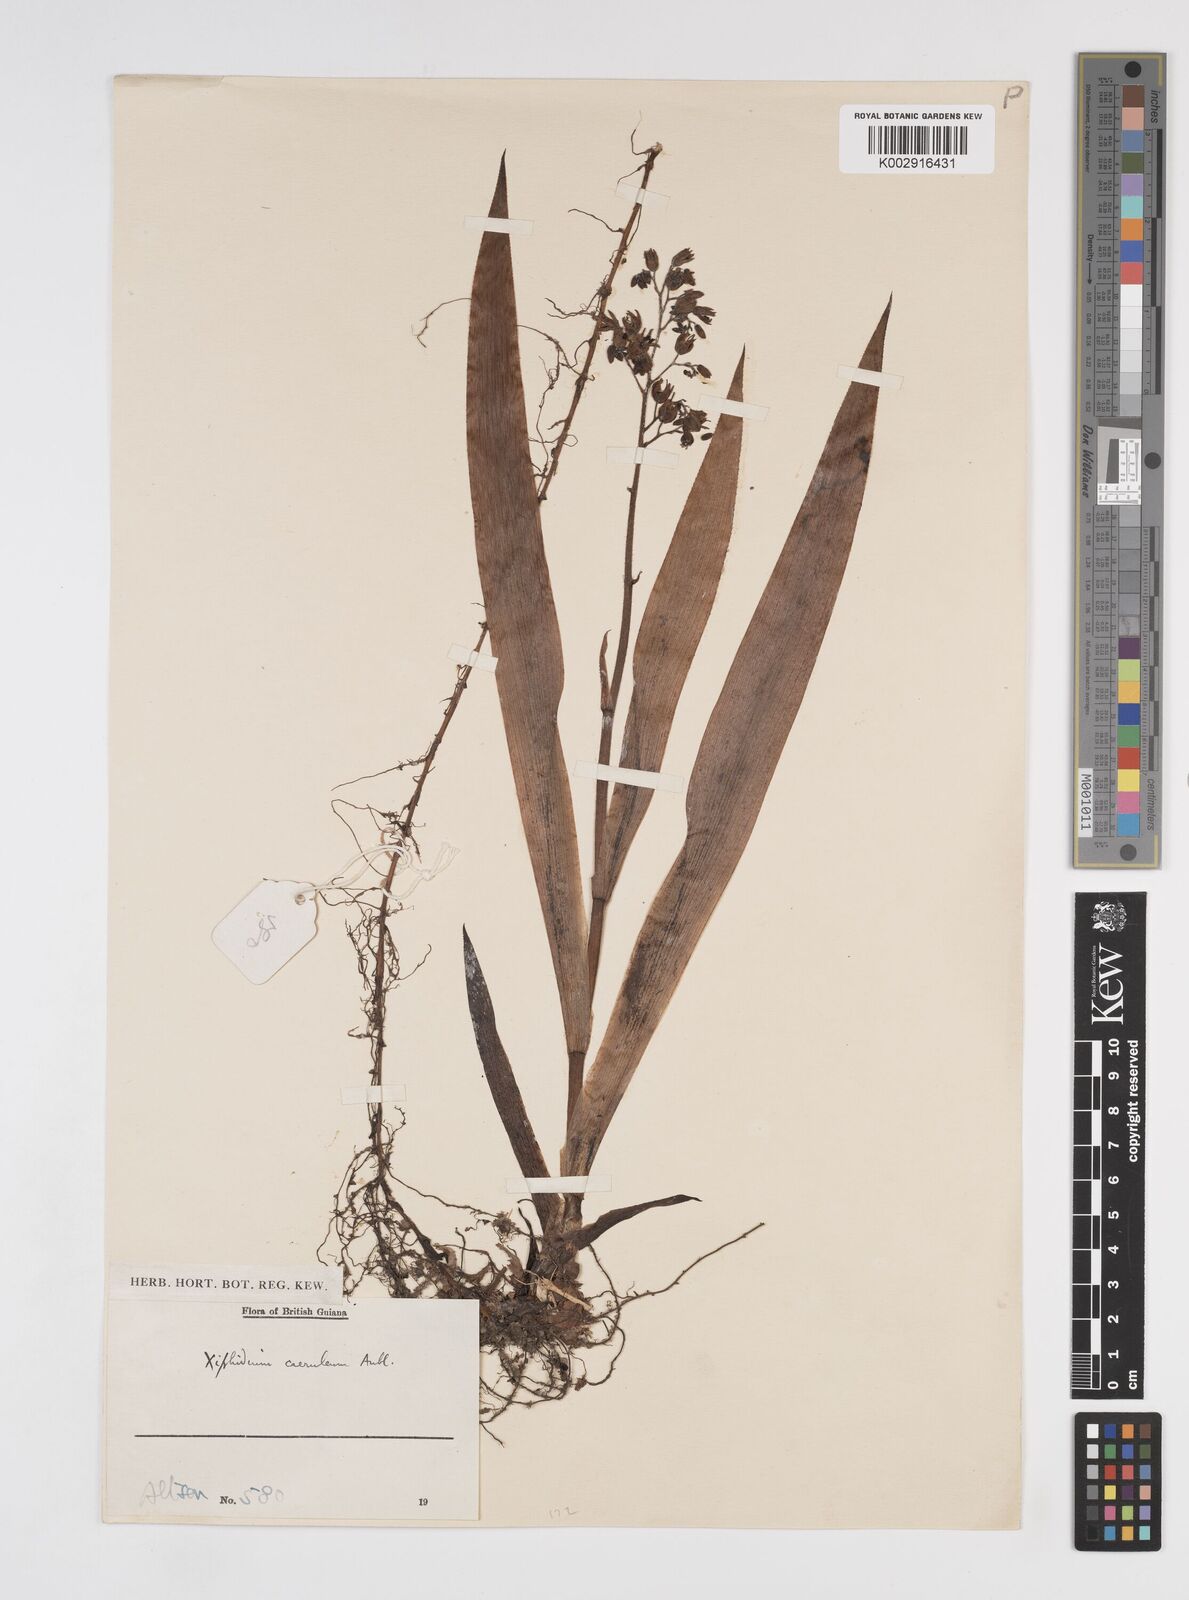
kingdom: Plantae
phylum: Tracheophyta
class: Liliopsida
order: Commelinales
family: Haemodoraceae
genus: Xiphidium
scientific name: Xiphidium caeruleum
